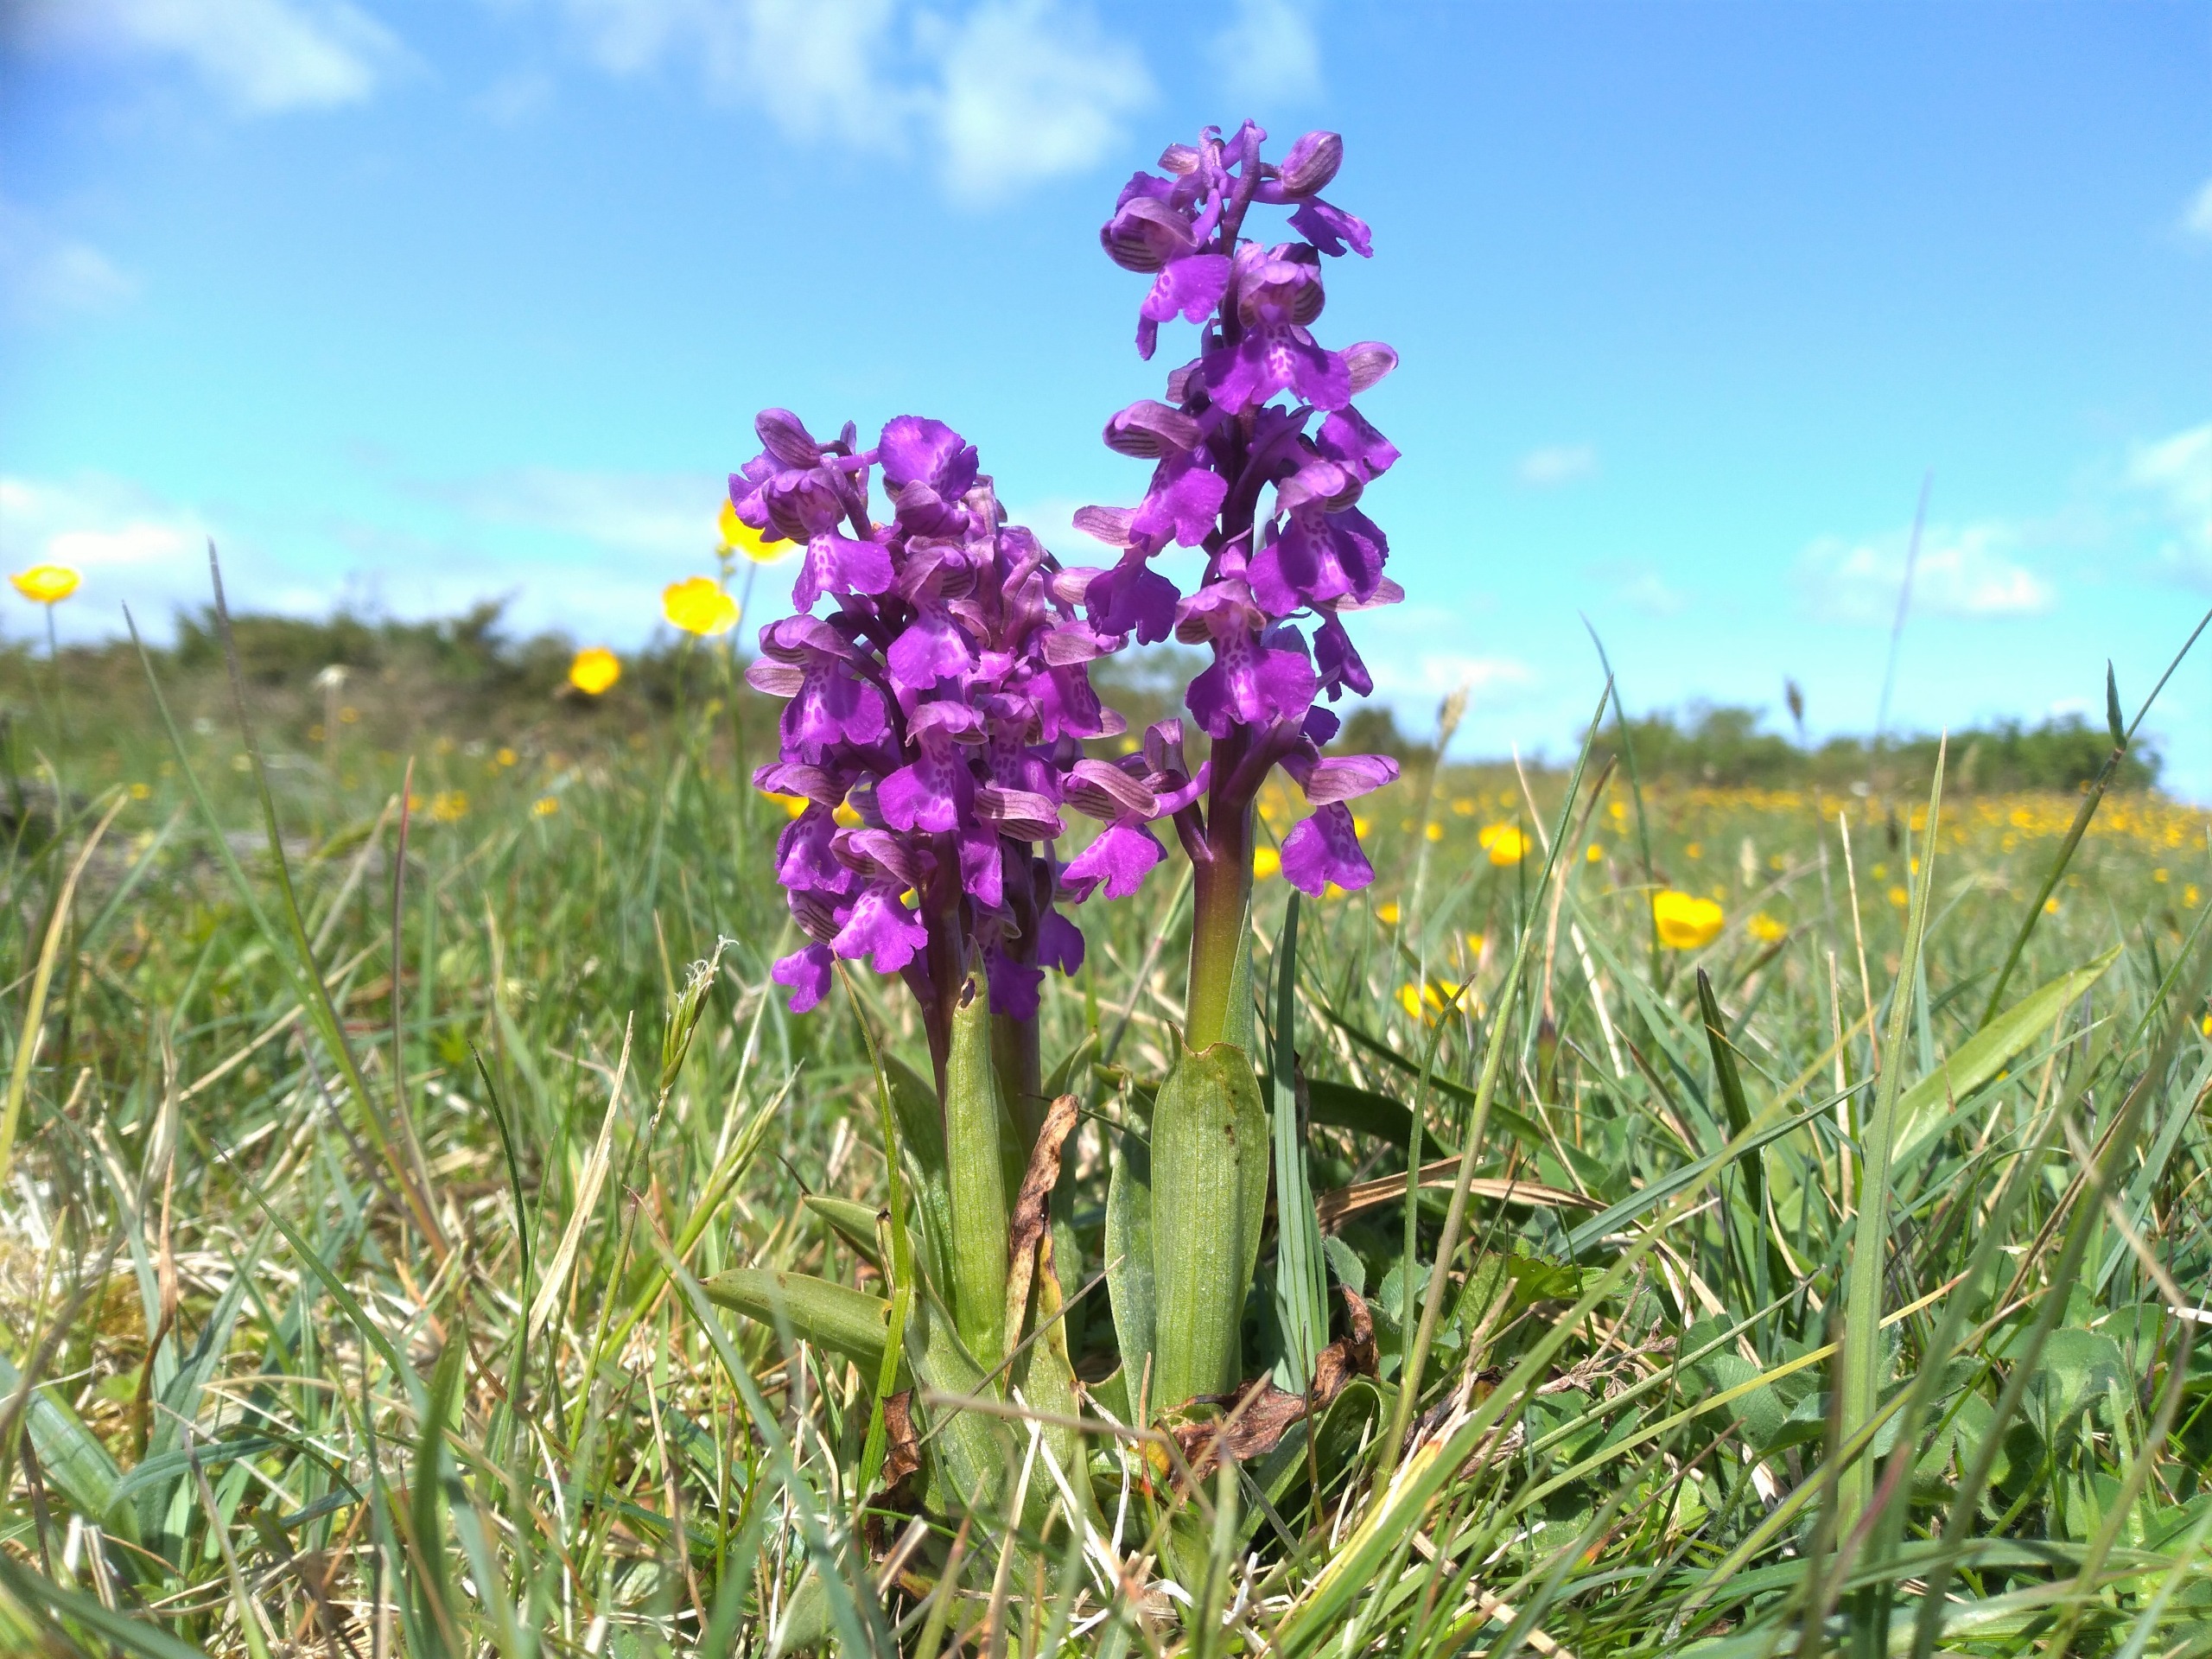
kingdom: Plantae
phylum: Tracheophyta
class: Liliopsida
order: Asparagales
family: Orchidaceae
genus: Anacamptis
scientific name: Anacamptis morio
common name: Salepgøgeurt
